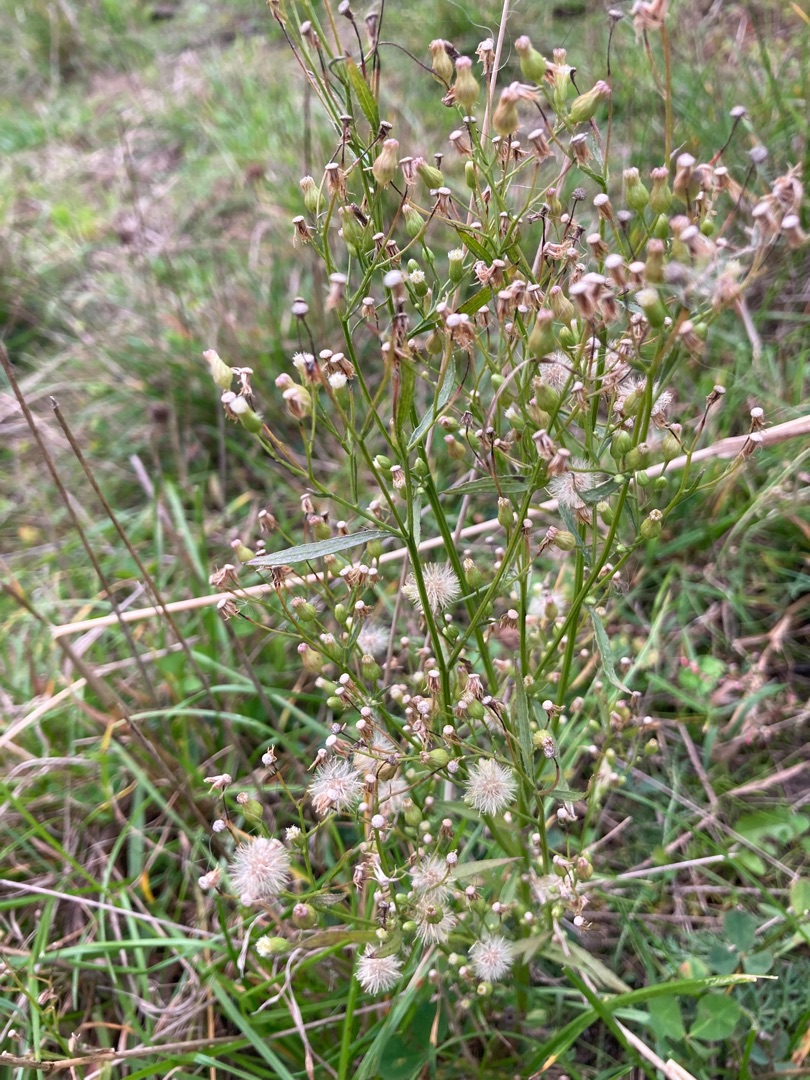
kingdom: Plantae
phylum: Tracheophyta
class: Magnoliopsida
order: Asterales
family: Asteraceae
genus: Erigeron
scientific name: Erigeron canadensis
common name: Kanadisk bakkestjerne
